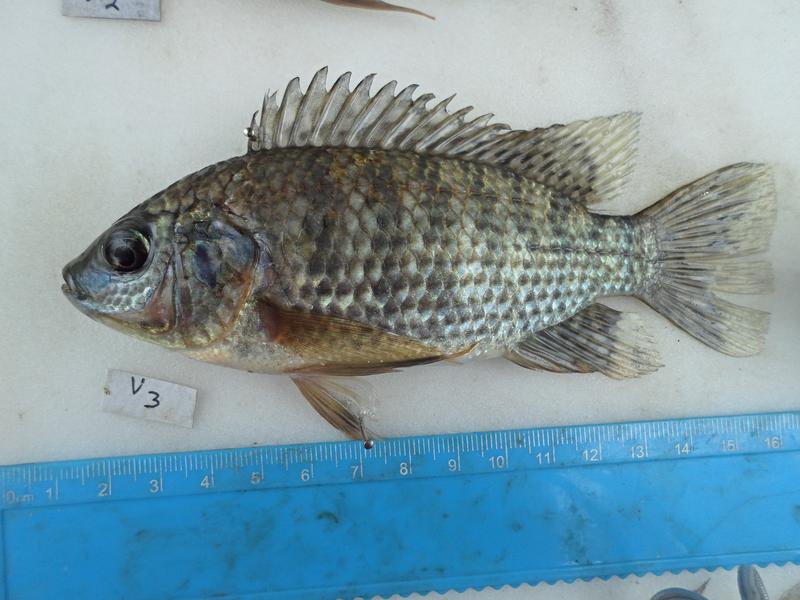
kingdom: Animalia
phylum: Chordata
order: Perciformes
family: Cichlidae
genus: Oreochromis
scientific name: Oreochromis leucostictus
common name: Blue spotted tilapia
